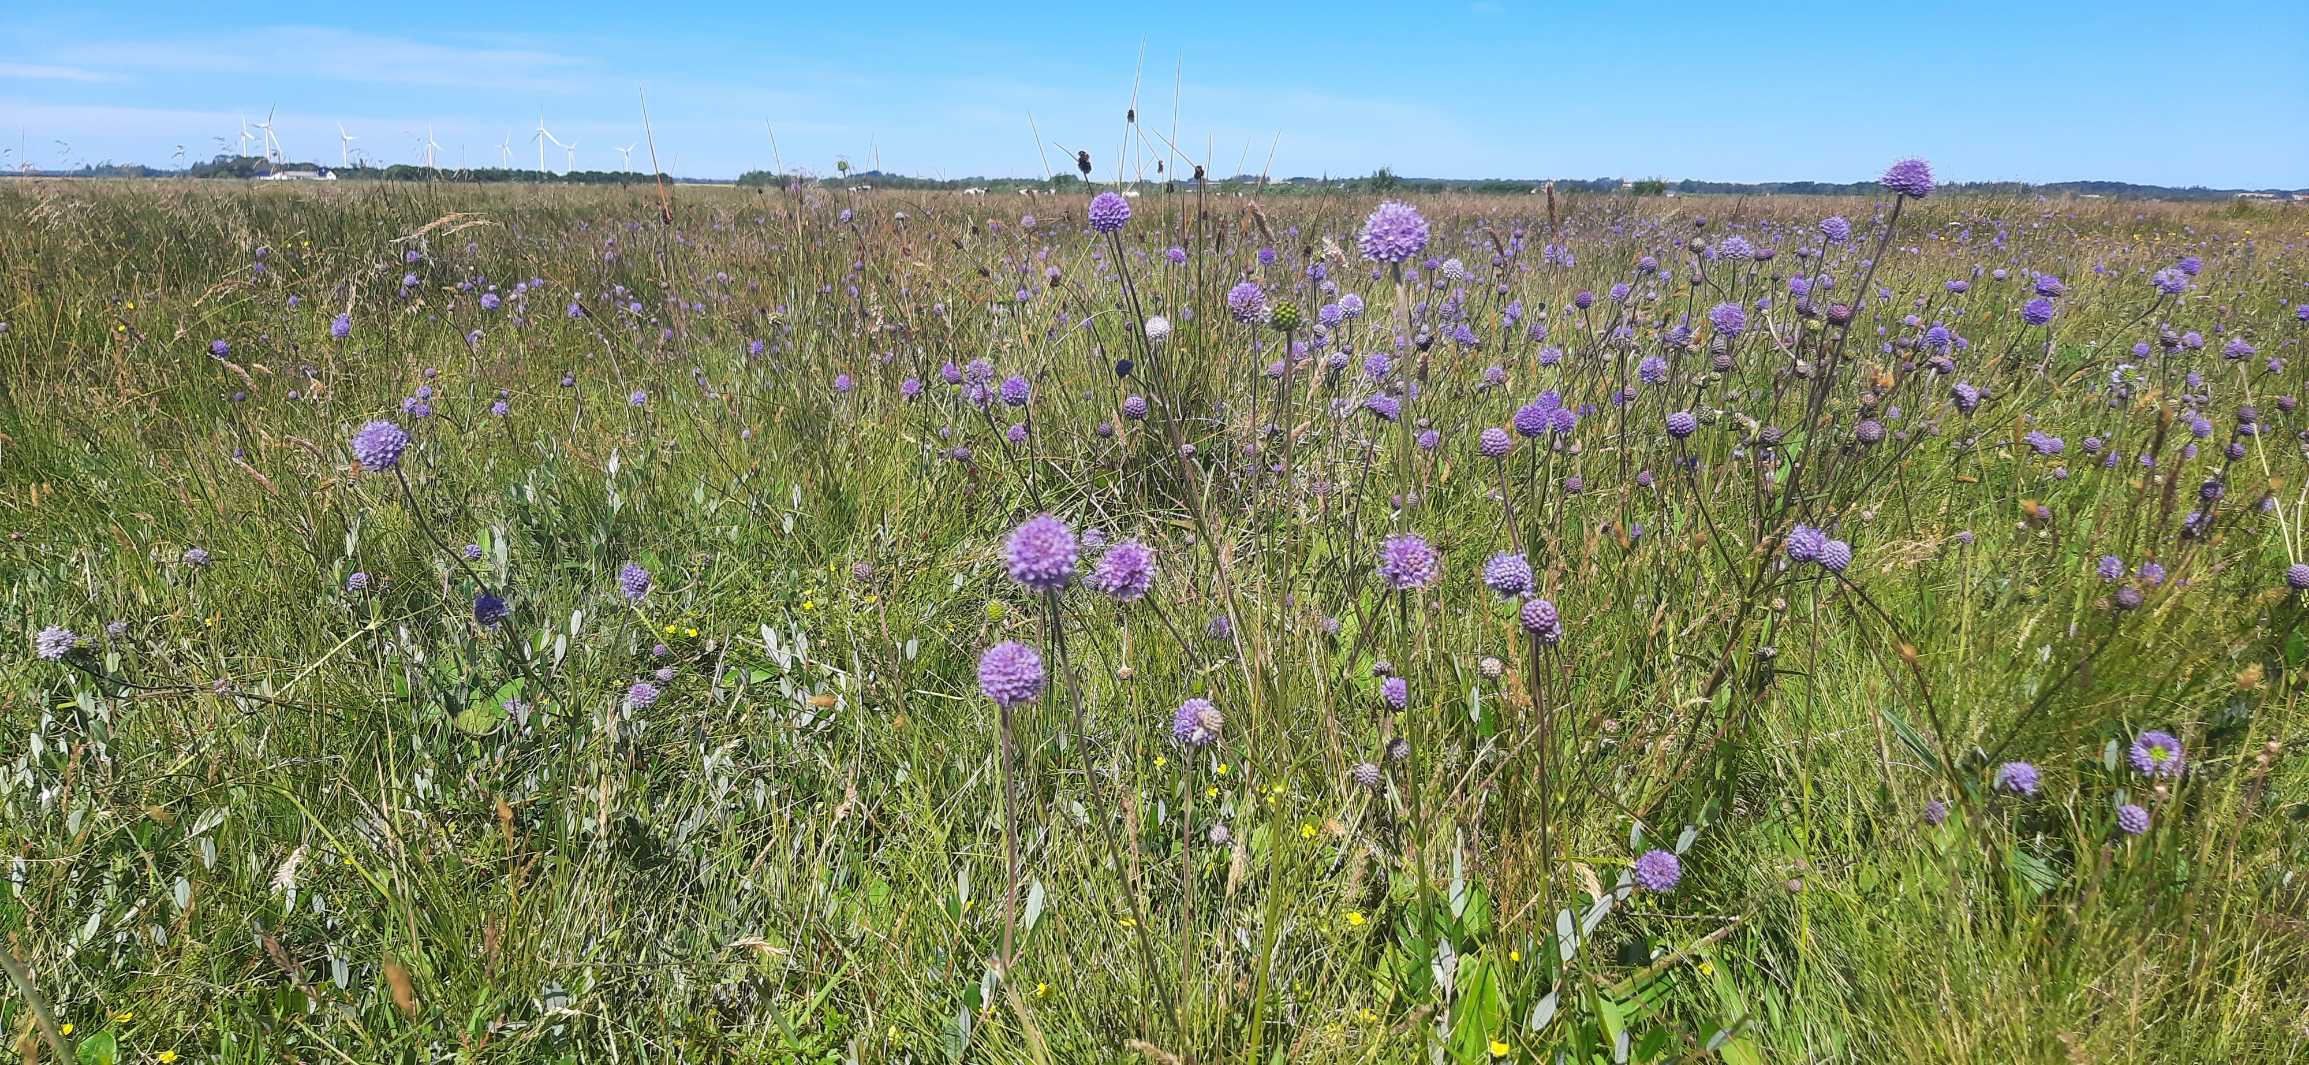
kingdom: Plantae
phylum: Tracheophyta
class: Magnoliopsida
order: Dipsacales
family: Caprifoliaceae
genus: Succisa
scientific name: Succisa pratensis
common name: Djævelsbid
